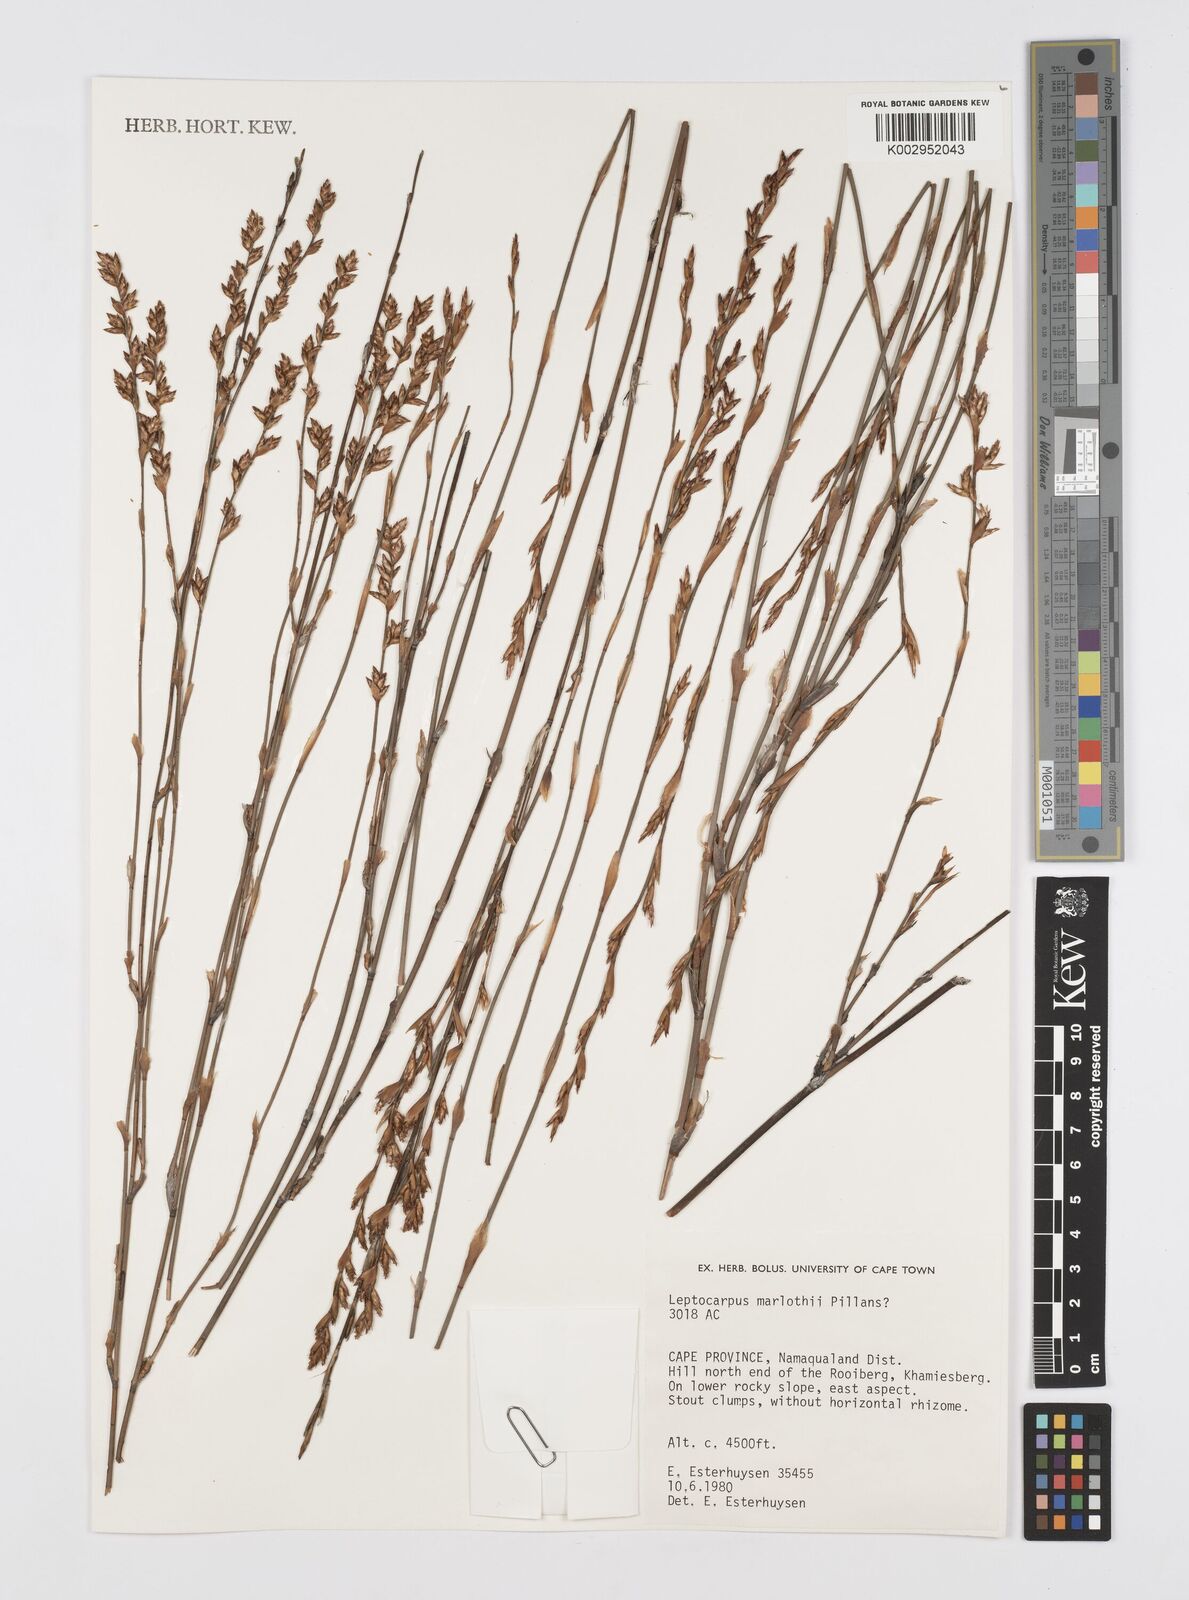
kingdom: Plantae
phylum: Tracheophyta
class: Liliopsida
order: Poales
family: Restionaceae
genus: Restio
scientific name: Restio marlothii
